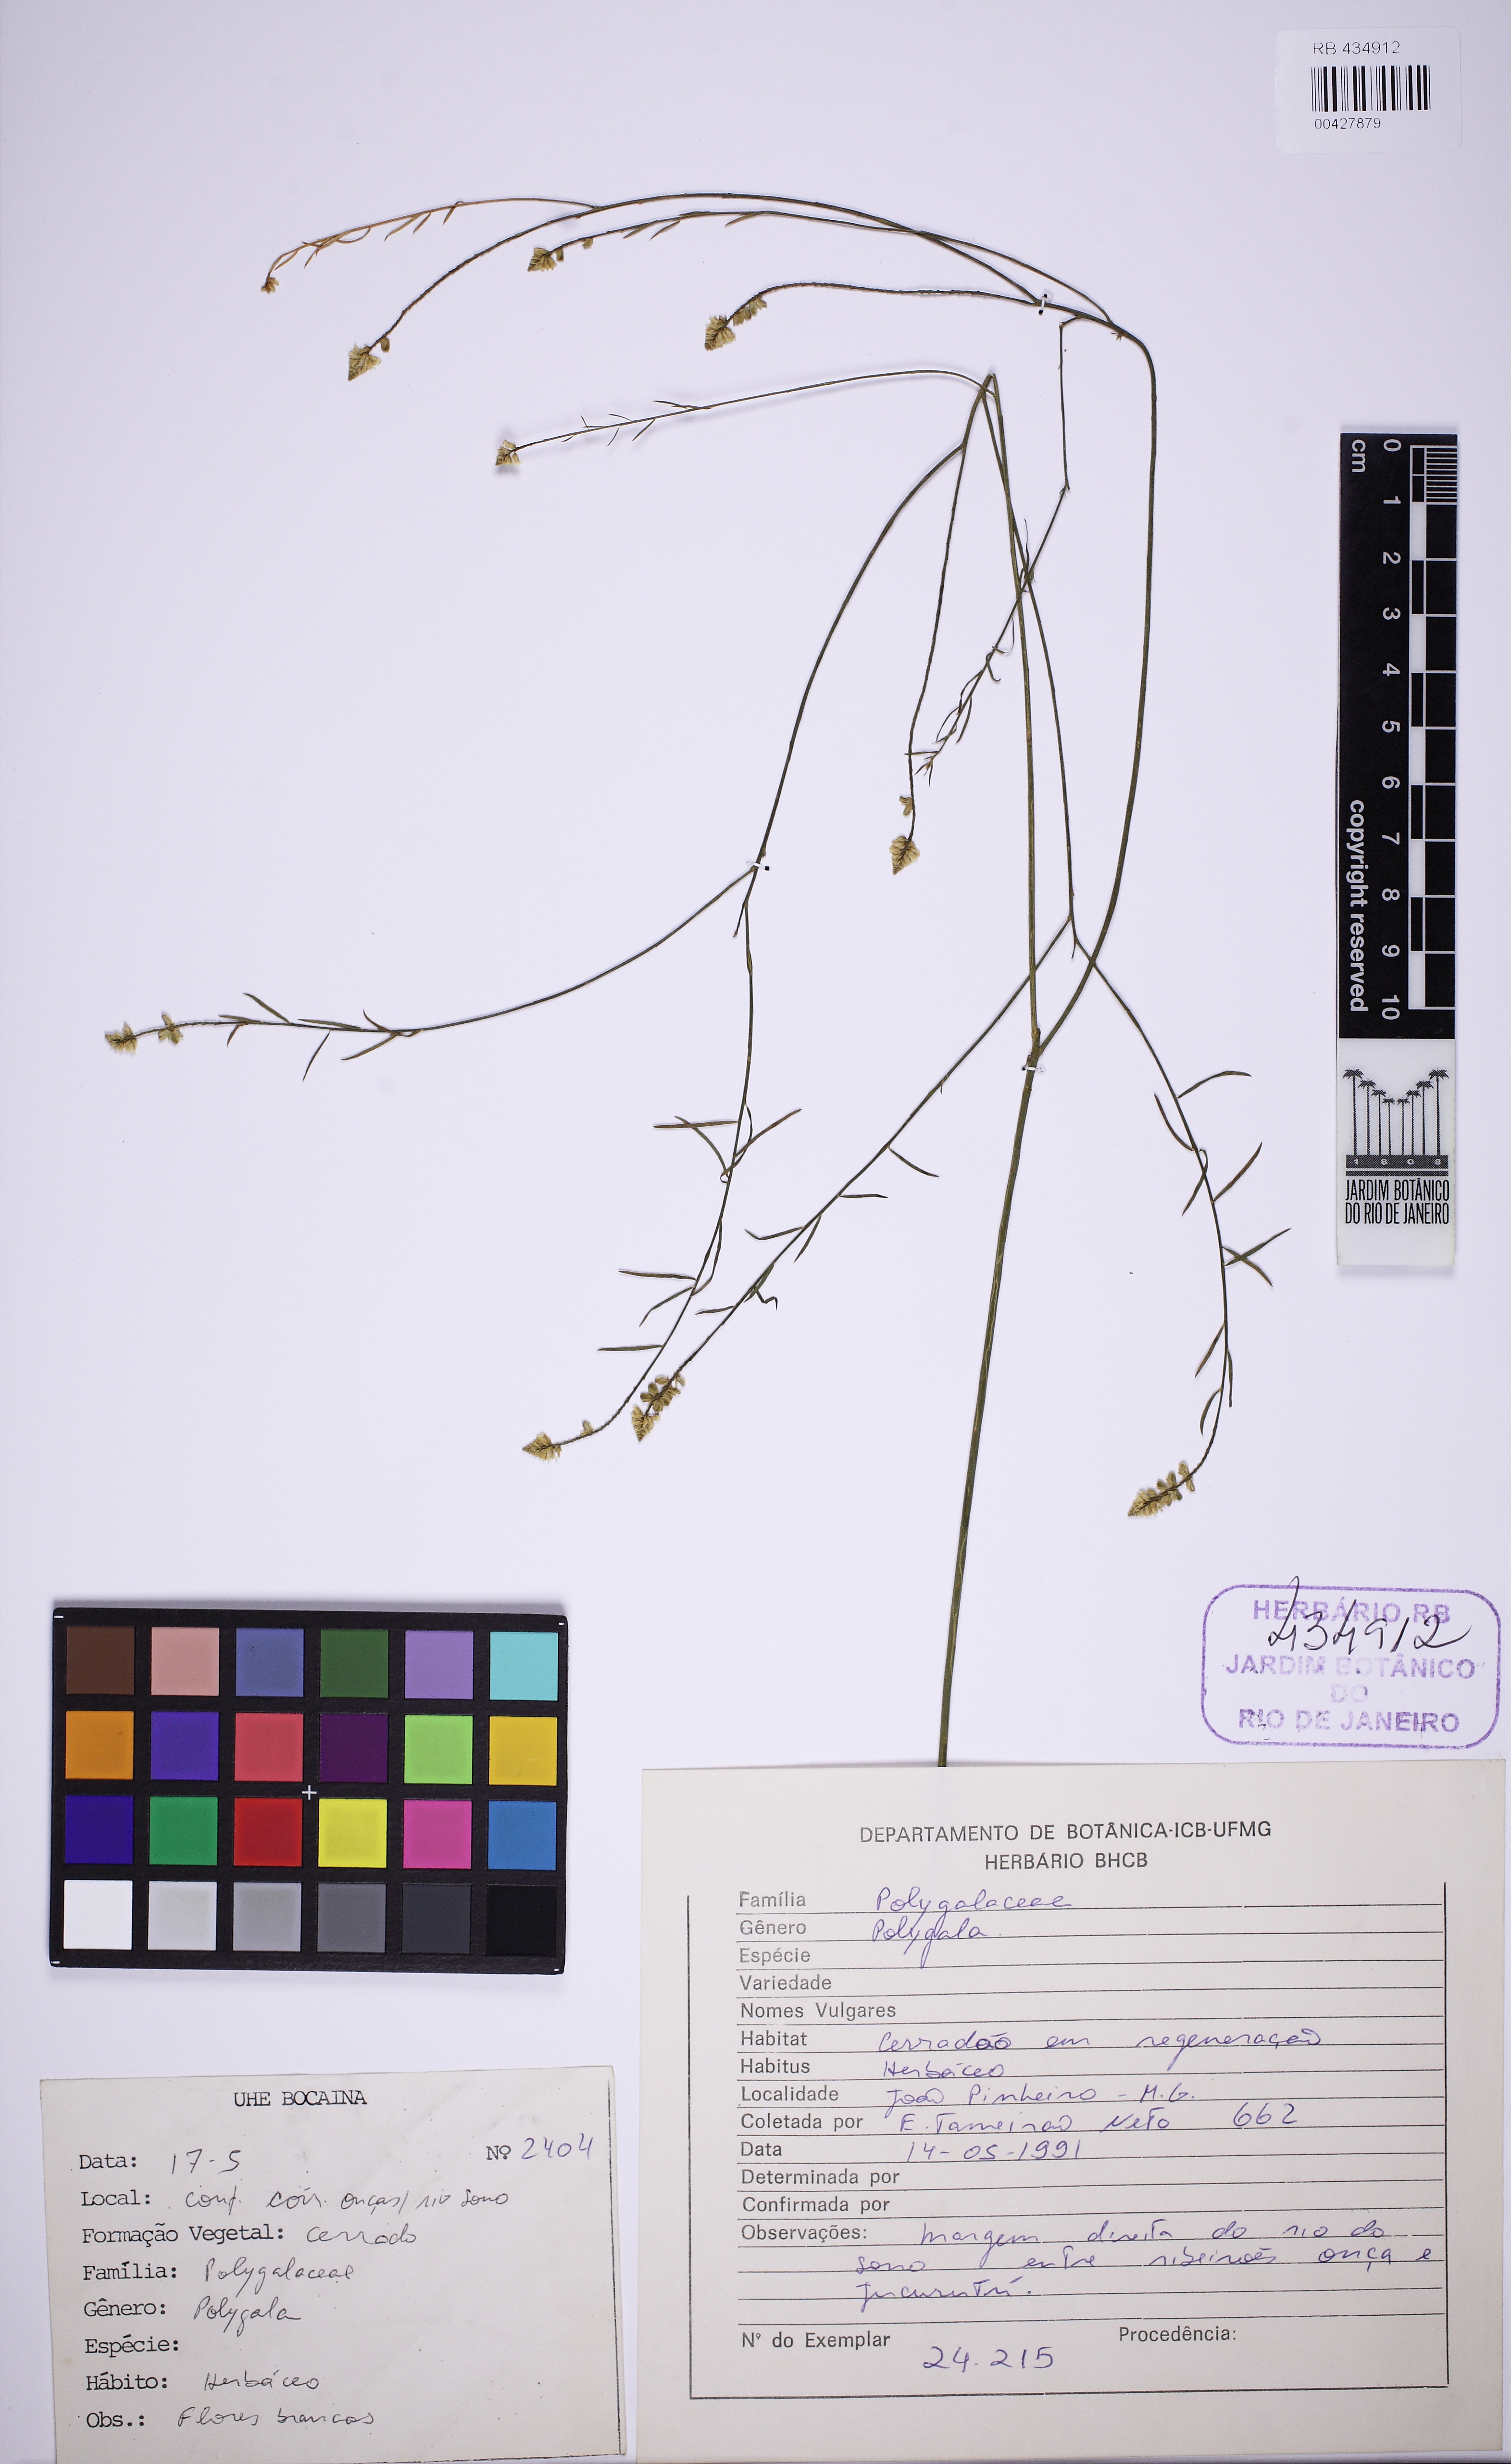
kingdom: Plantae
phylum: Tracheophyta
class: Magnoliopsida
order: Fabales
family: Polygalaceae
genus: Polygala
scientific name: Polygala equisetoides
